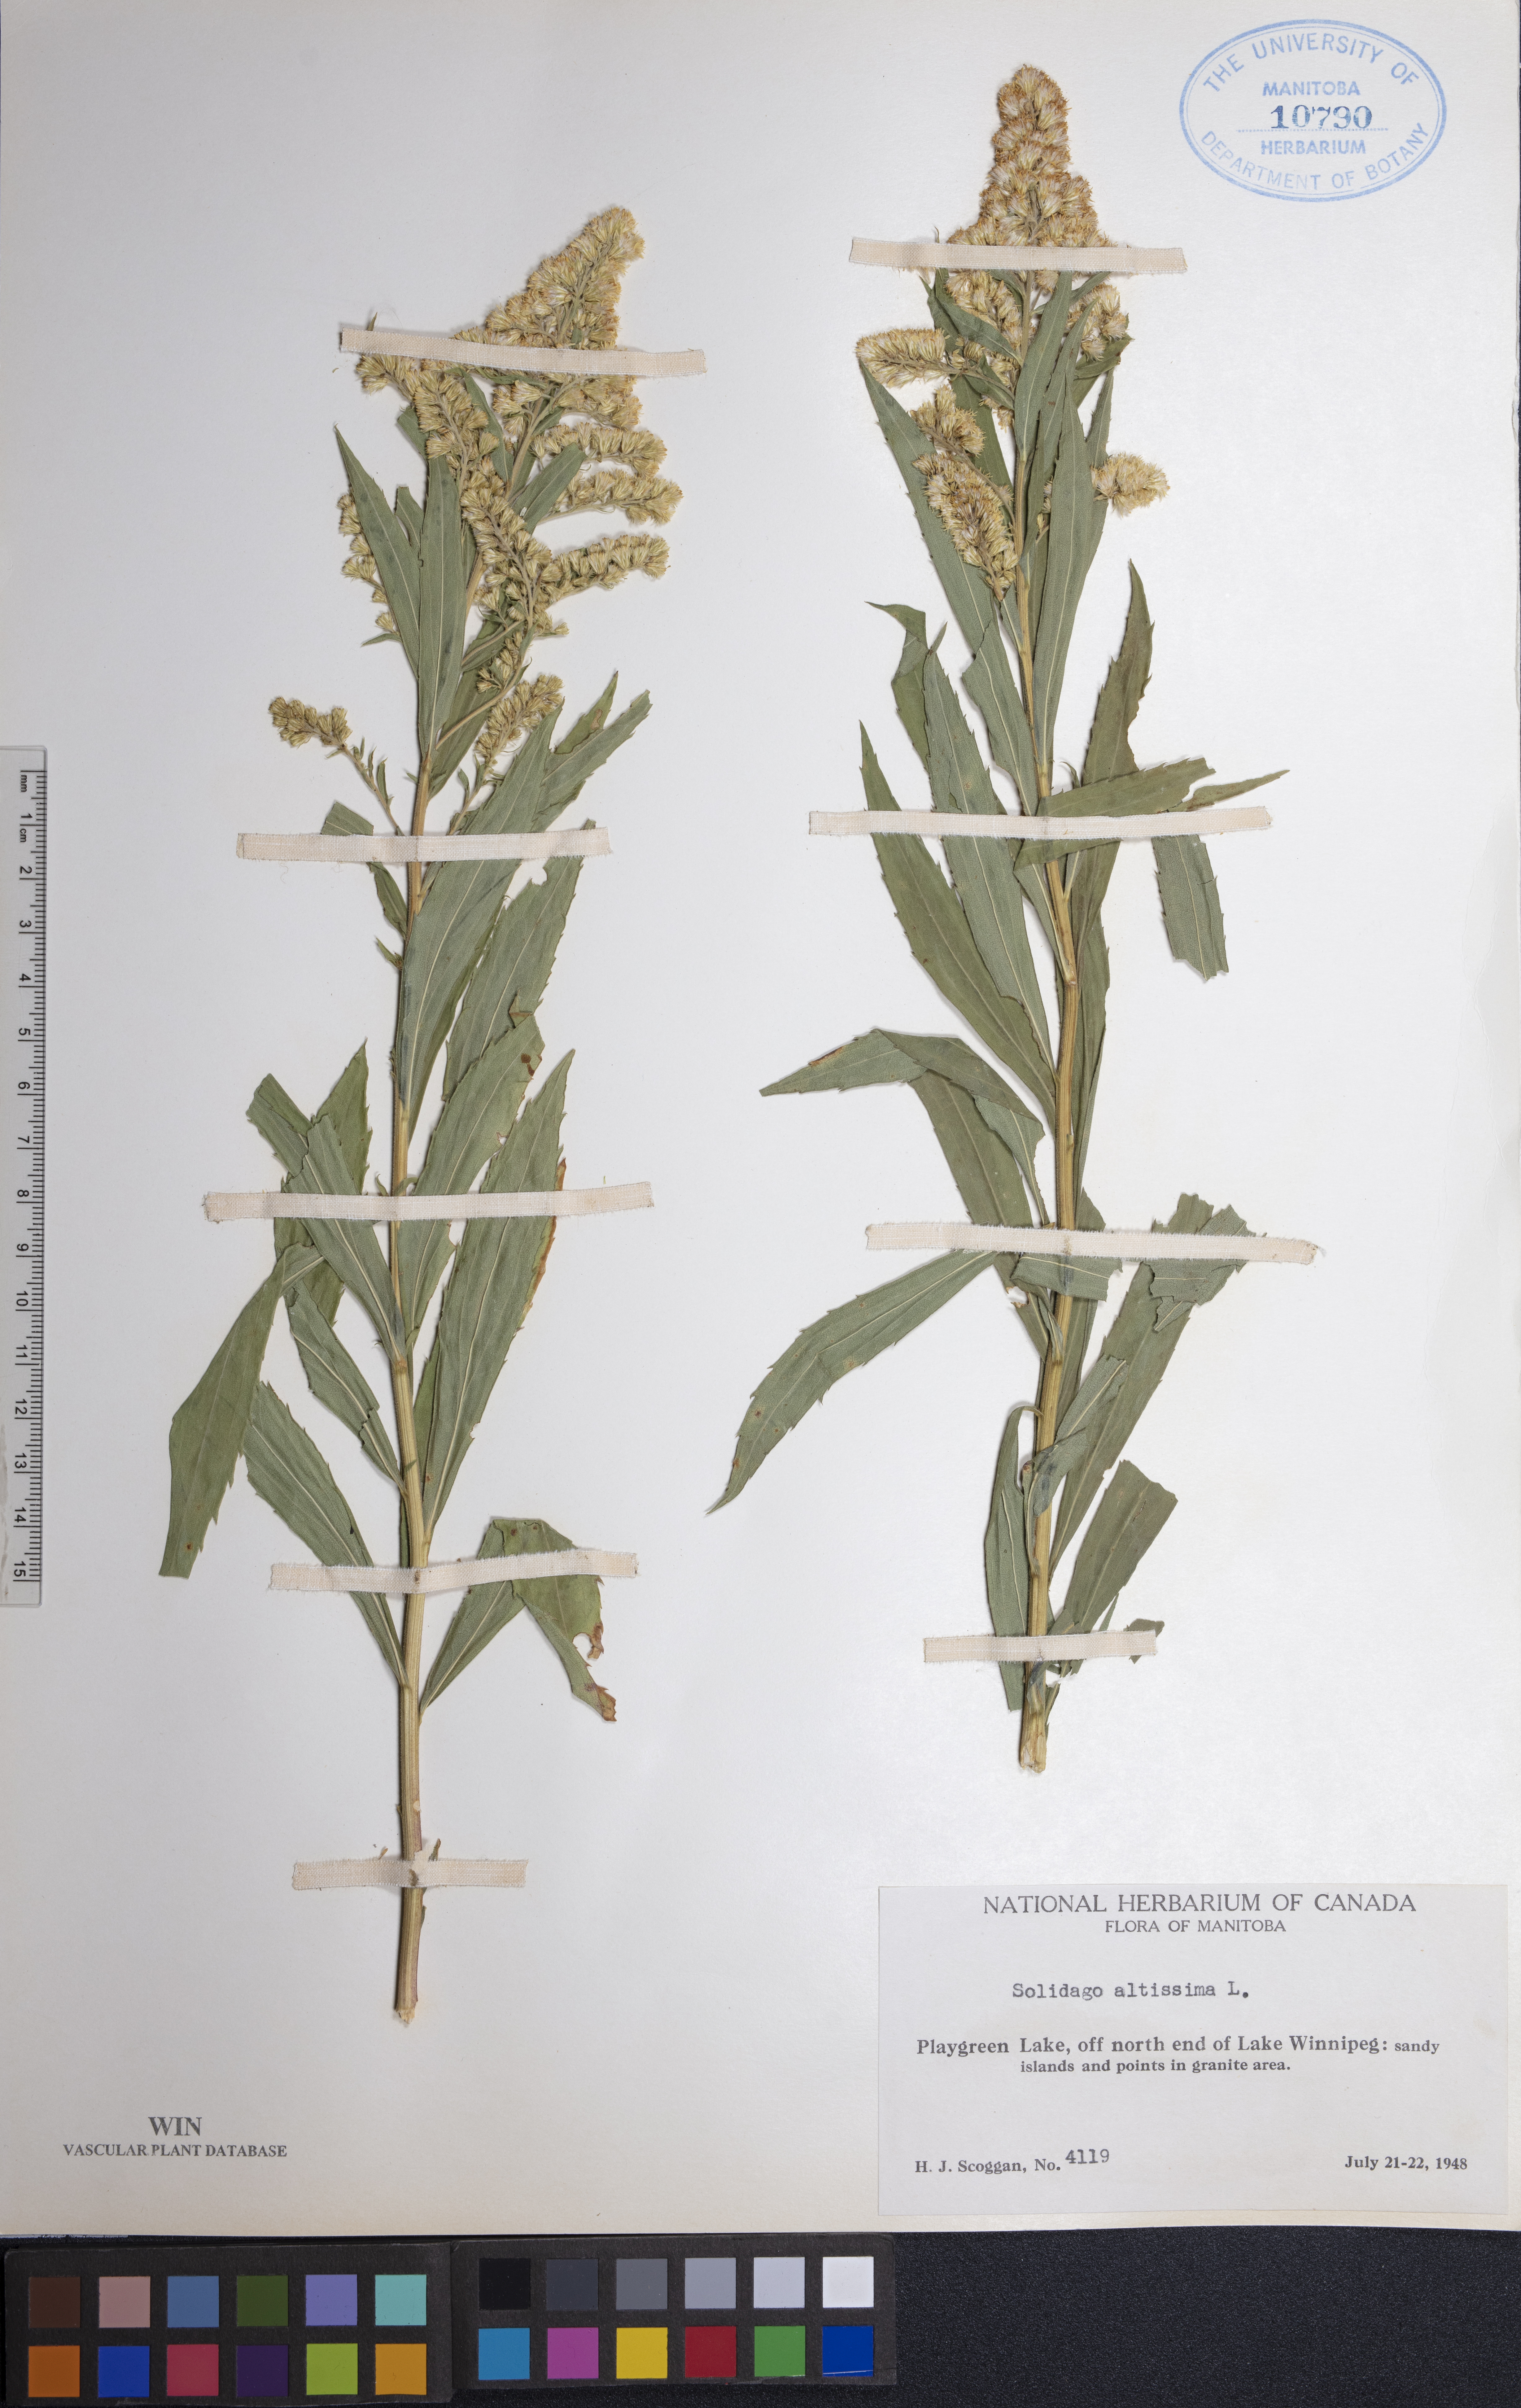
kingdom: Plantae
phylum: Tracheophyta
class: Magnoliopsida
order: Asterales
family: Asteraceae
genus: Solidago
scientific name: Solidago altissima
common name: Late goldenrod
